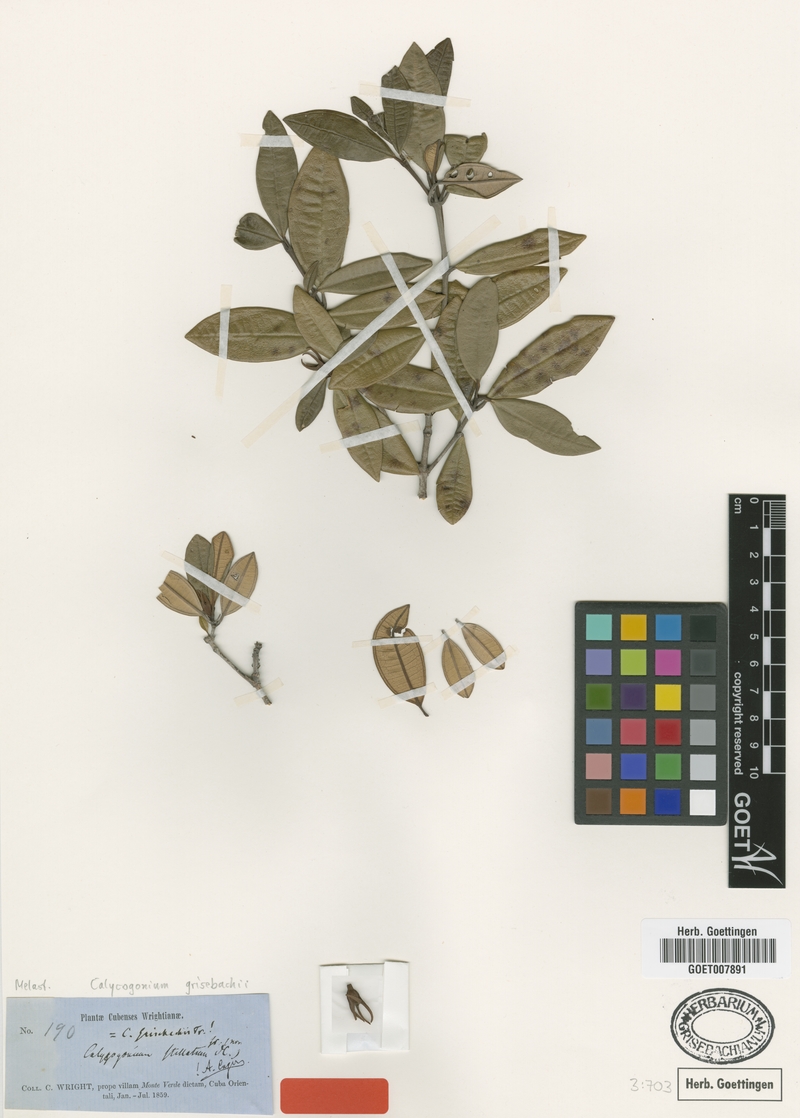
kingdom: Plantae
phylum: Tracheophyta
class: Magnoliopsida
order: Myrtales
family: Melastomataceae
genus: Miconia
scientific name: Miconia grisebachiana
